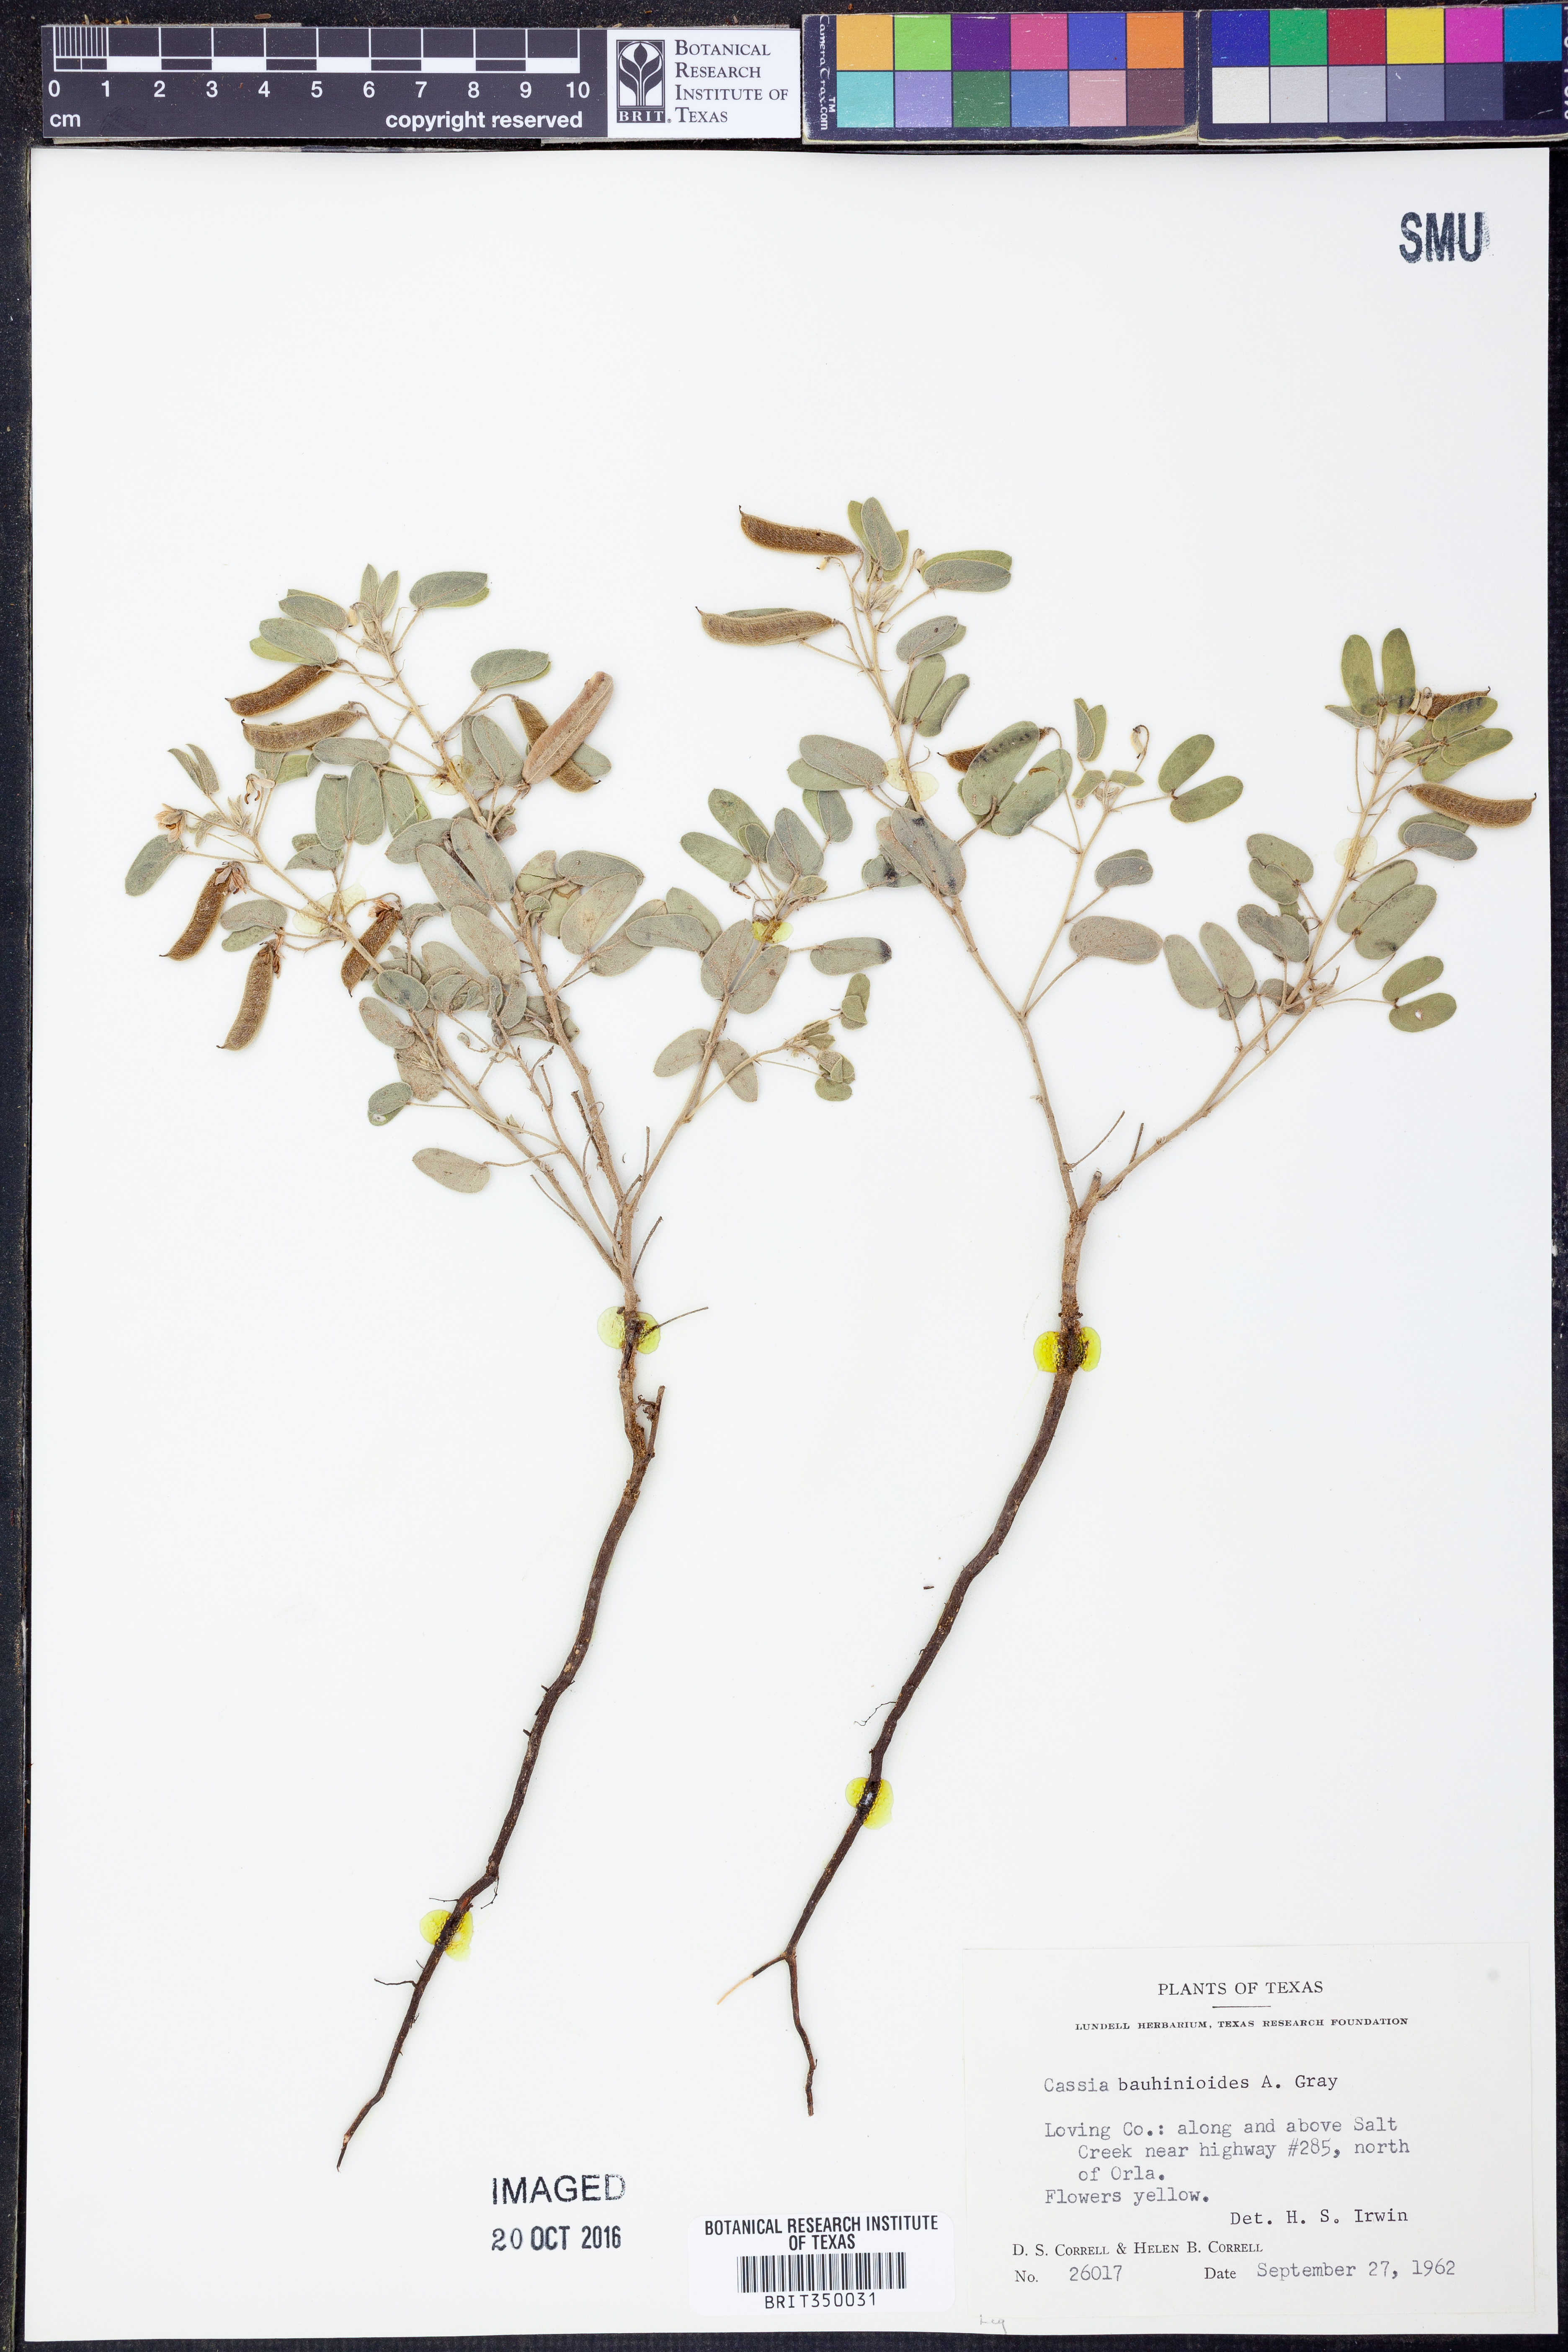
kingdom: Plantae
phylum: Tracheophyta
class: Magnoliopsida
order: Fabales
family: Fabaceae
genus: Senna
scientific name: Senna bauhinioides
